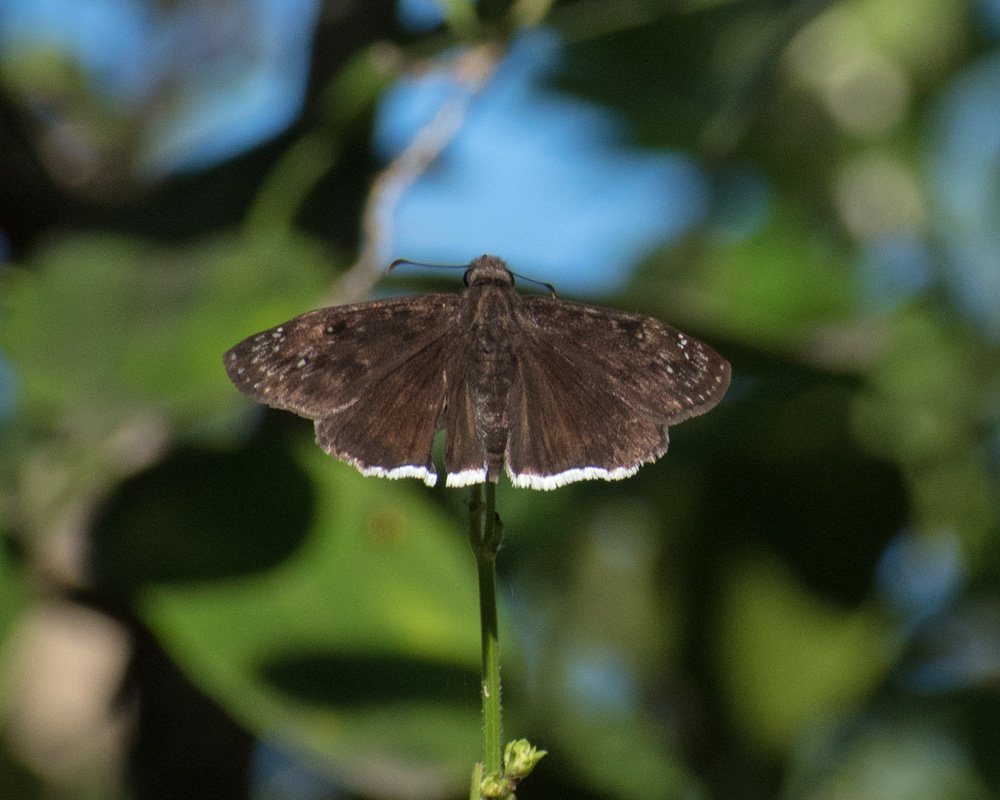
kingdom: Animalia
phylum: Arthropoda
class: Insecta
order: Lepidoptera
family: Hesperiidae
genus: Erynnis
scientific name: Erynnis funeralis
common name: Funereal Duskywing
